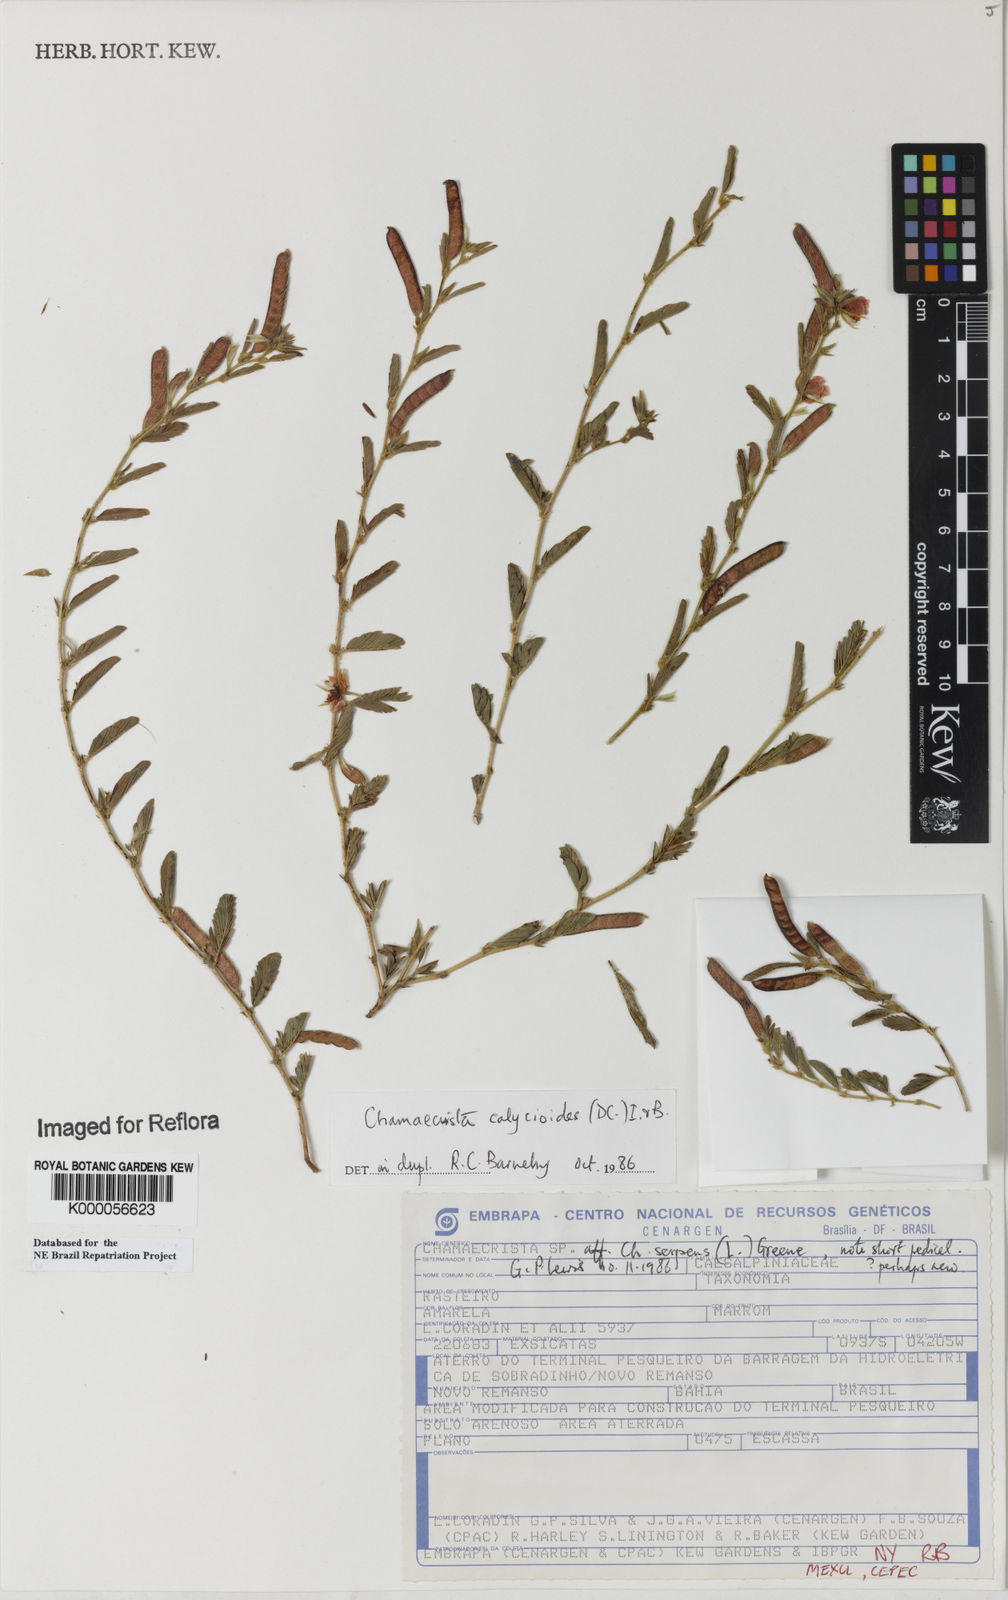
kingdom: Plantae
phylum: Tracheophyta
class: Magnoliopsida
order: Fabales
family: Fabaceae
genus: Chamaecrista
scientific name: Chamaecrista calycioides
